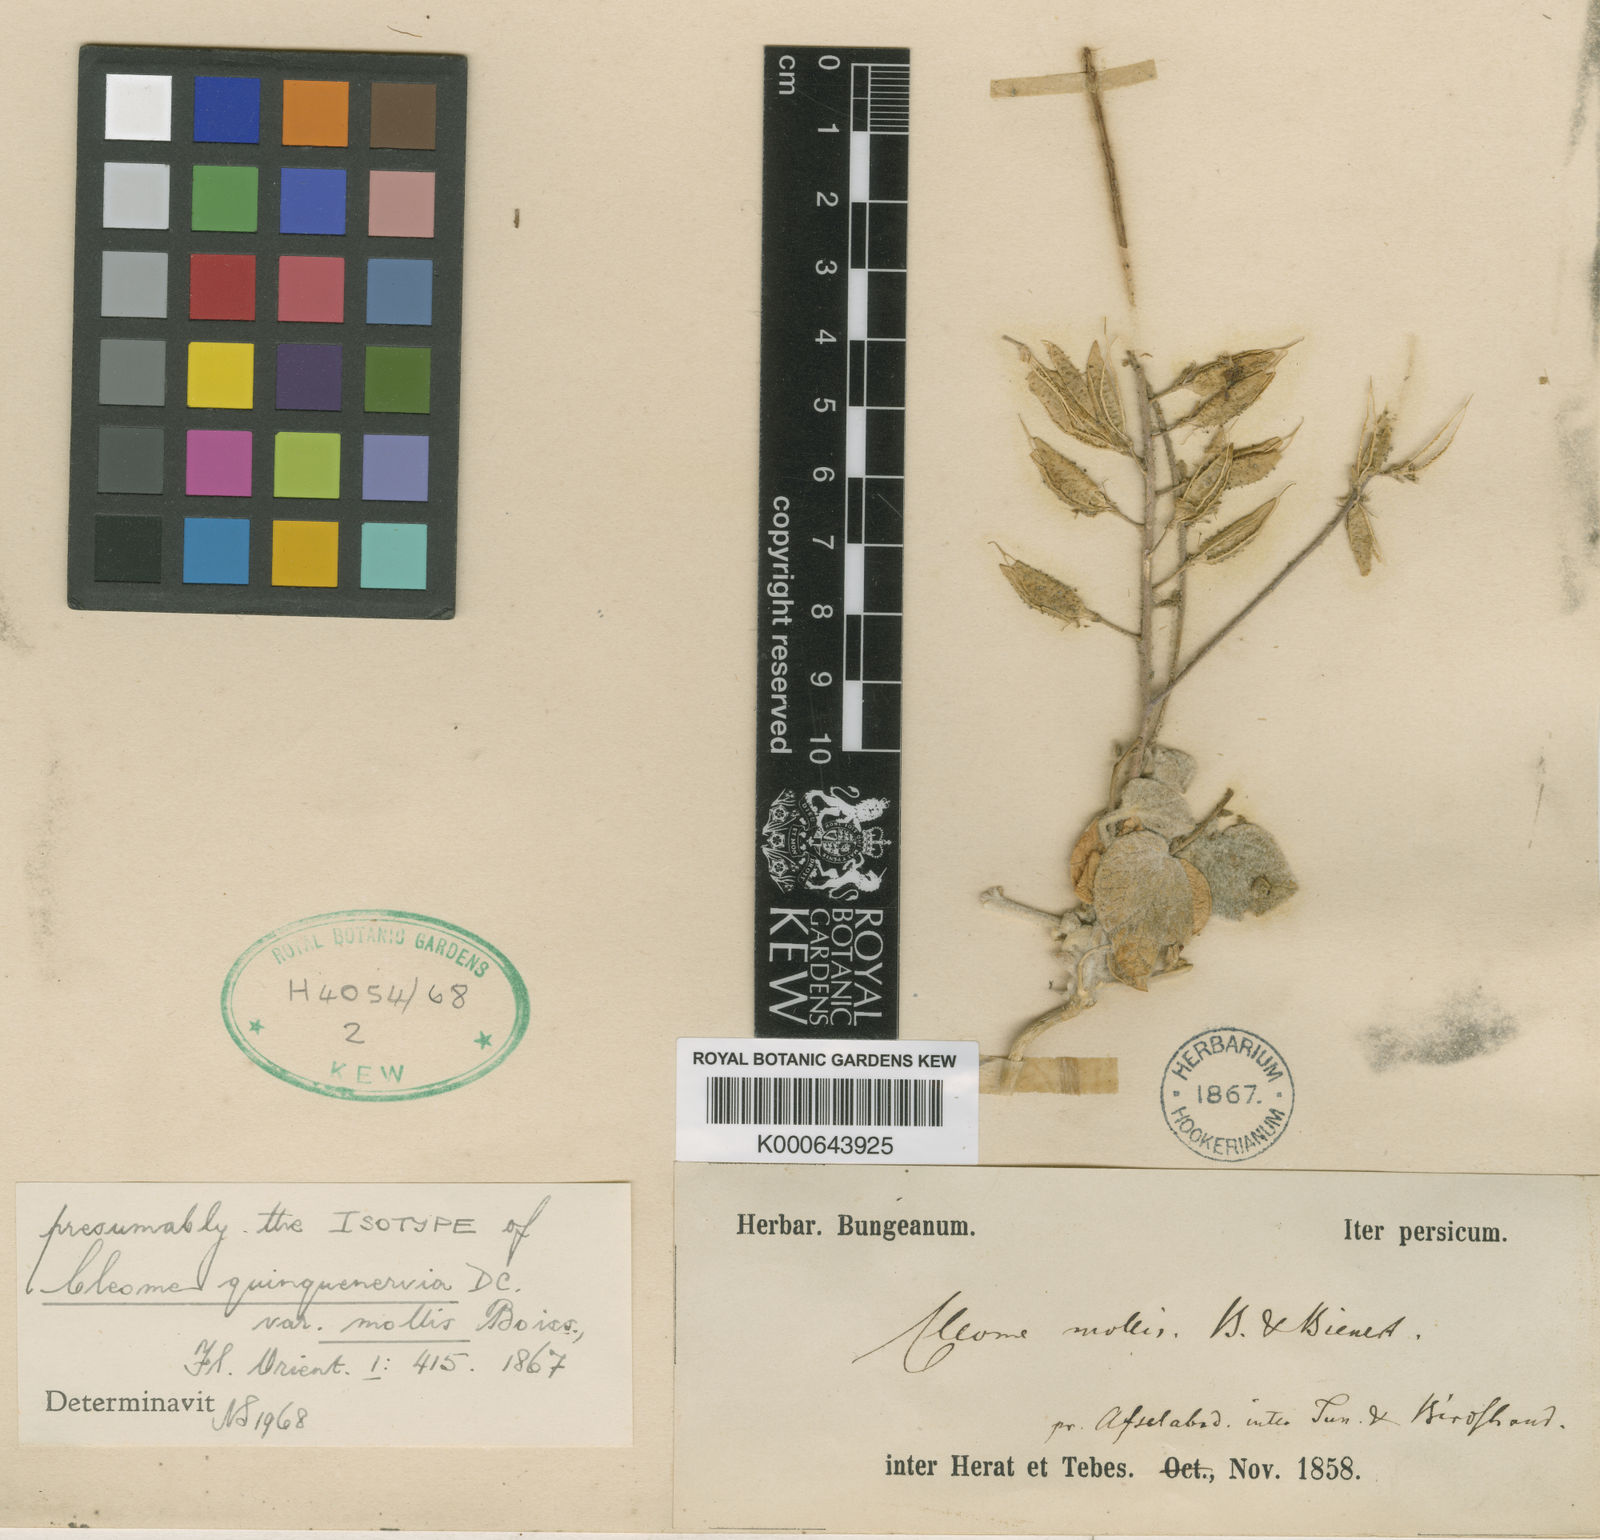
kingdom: Plantae
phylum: Tracheophyta
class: Magnoliopsida
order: Brassicales
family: Cleomaceae
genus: Rorida
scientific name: Rorida tomentella
